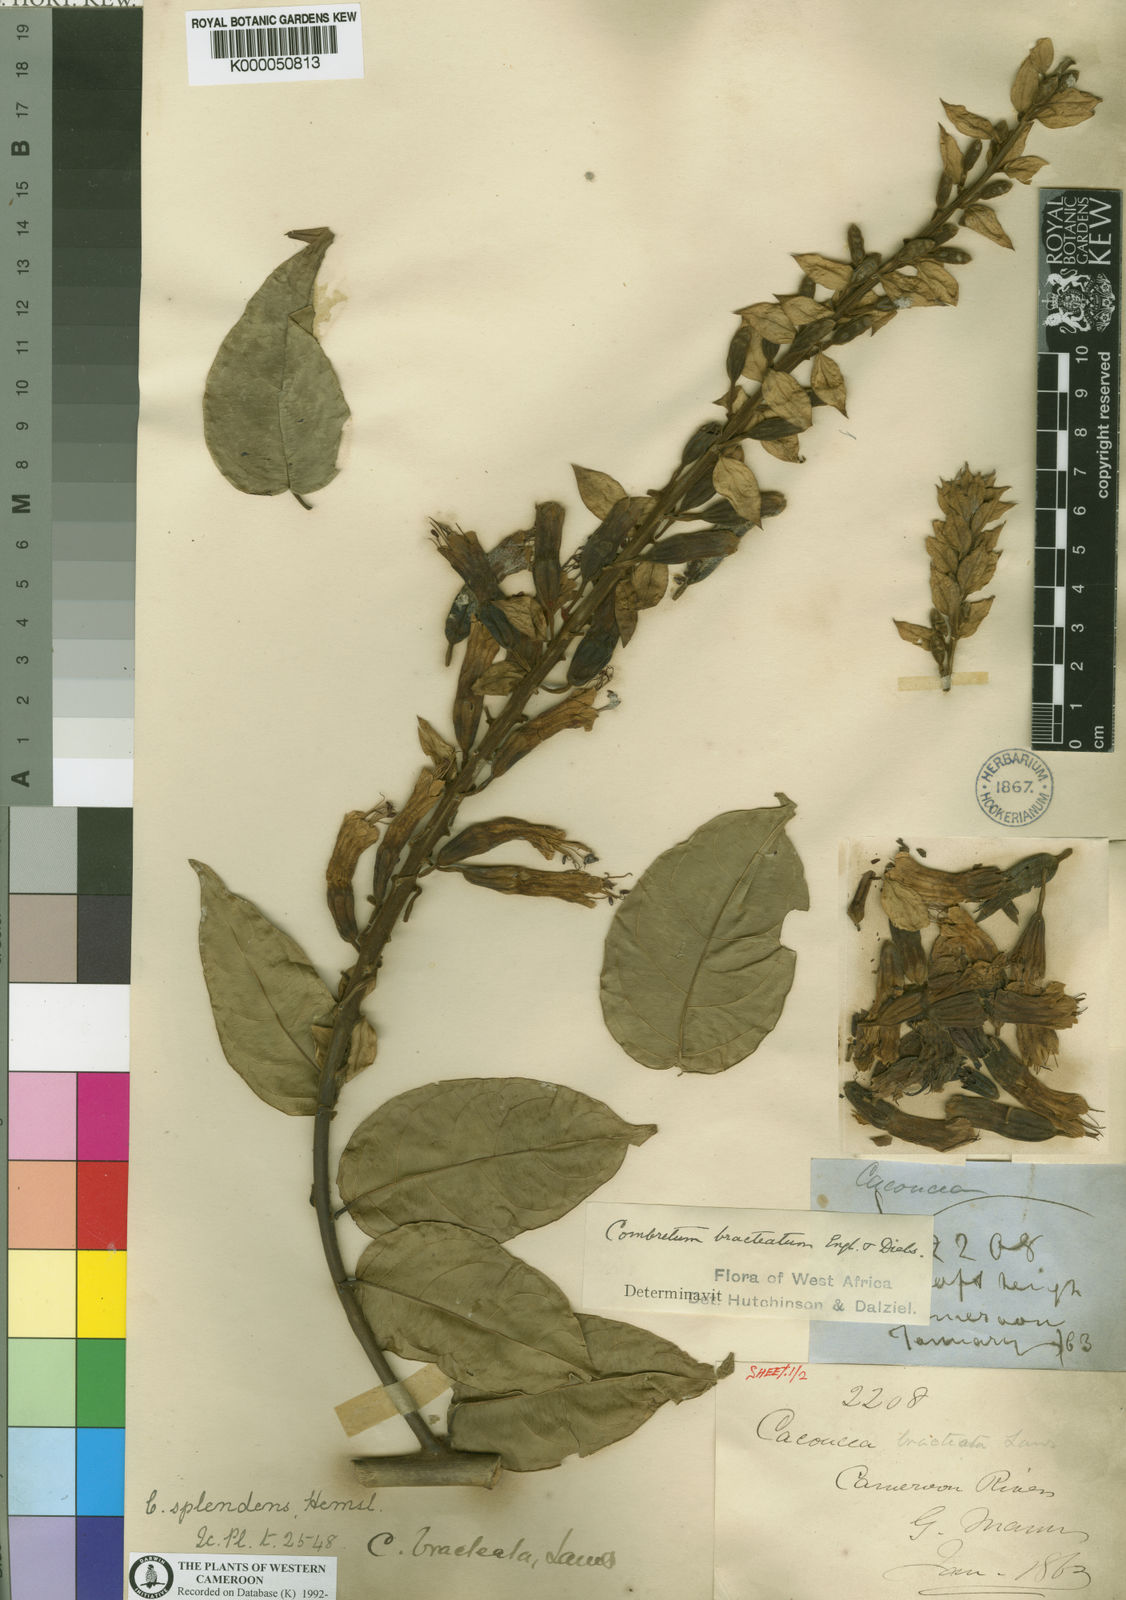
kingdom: Plantae
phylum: Tracheophyta
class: Magnoliopsida
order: Myrtales
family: Combretaceae
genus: Combretum
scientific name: Combretum bracteatum
